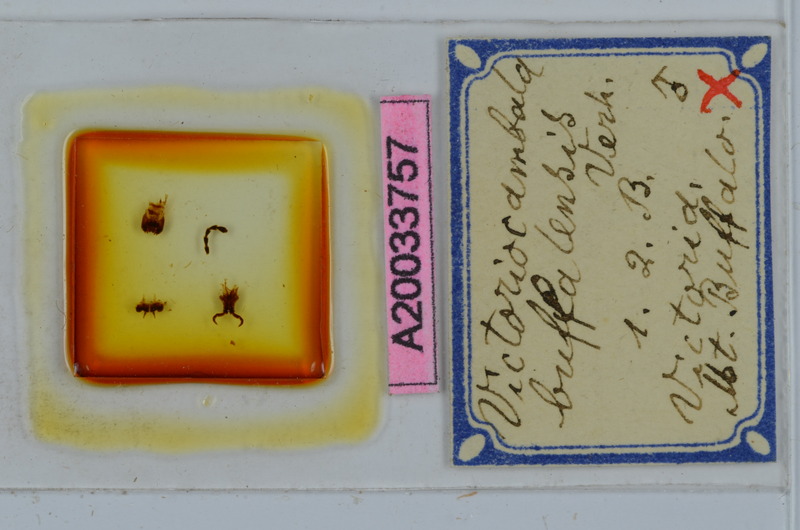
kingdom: Animalia
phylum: Arthropoda
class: Diplopoda
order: Spirostreptida
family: Iulomorphidae
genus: Victoriocambala
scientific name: Victoriocambala buffalensis
